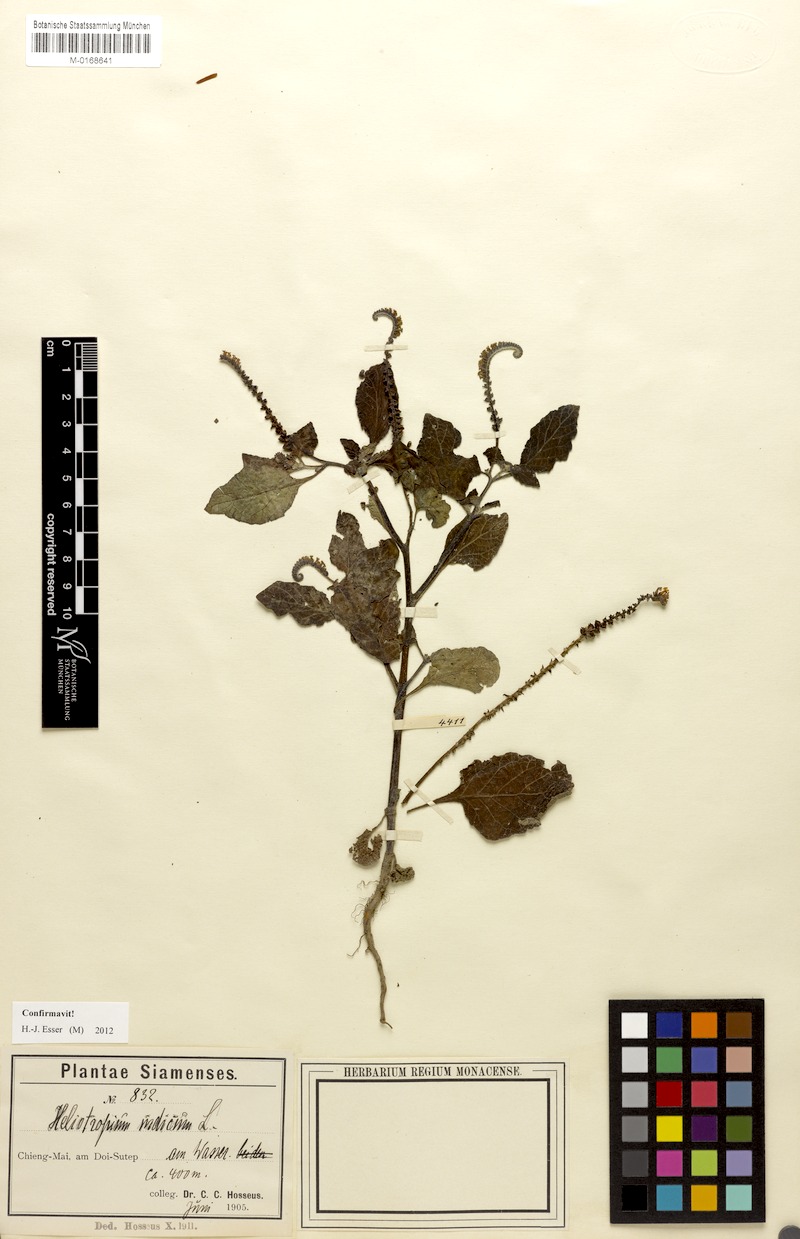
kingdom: Plantae
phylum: Tracheophyta
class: Magnoliopsida
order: Boraginales
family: Heliotropiaceae
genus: Heliotropium
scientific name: Heliotropium indicum
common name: Indian heliotrope
